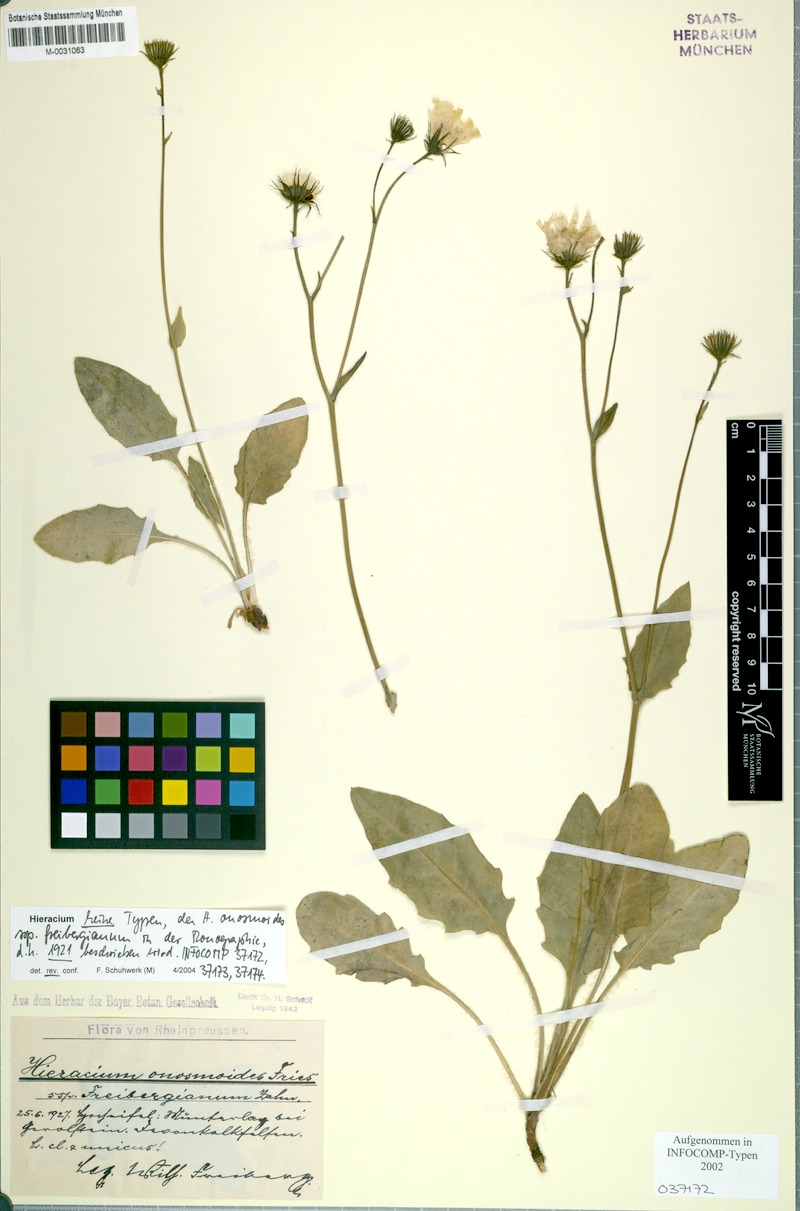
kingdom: Plantae
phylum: Tracheophyta
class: Magnoliopsida
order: Asterales
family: Asteraceae
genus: Hieracium
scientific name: Hieracium onosmoides
